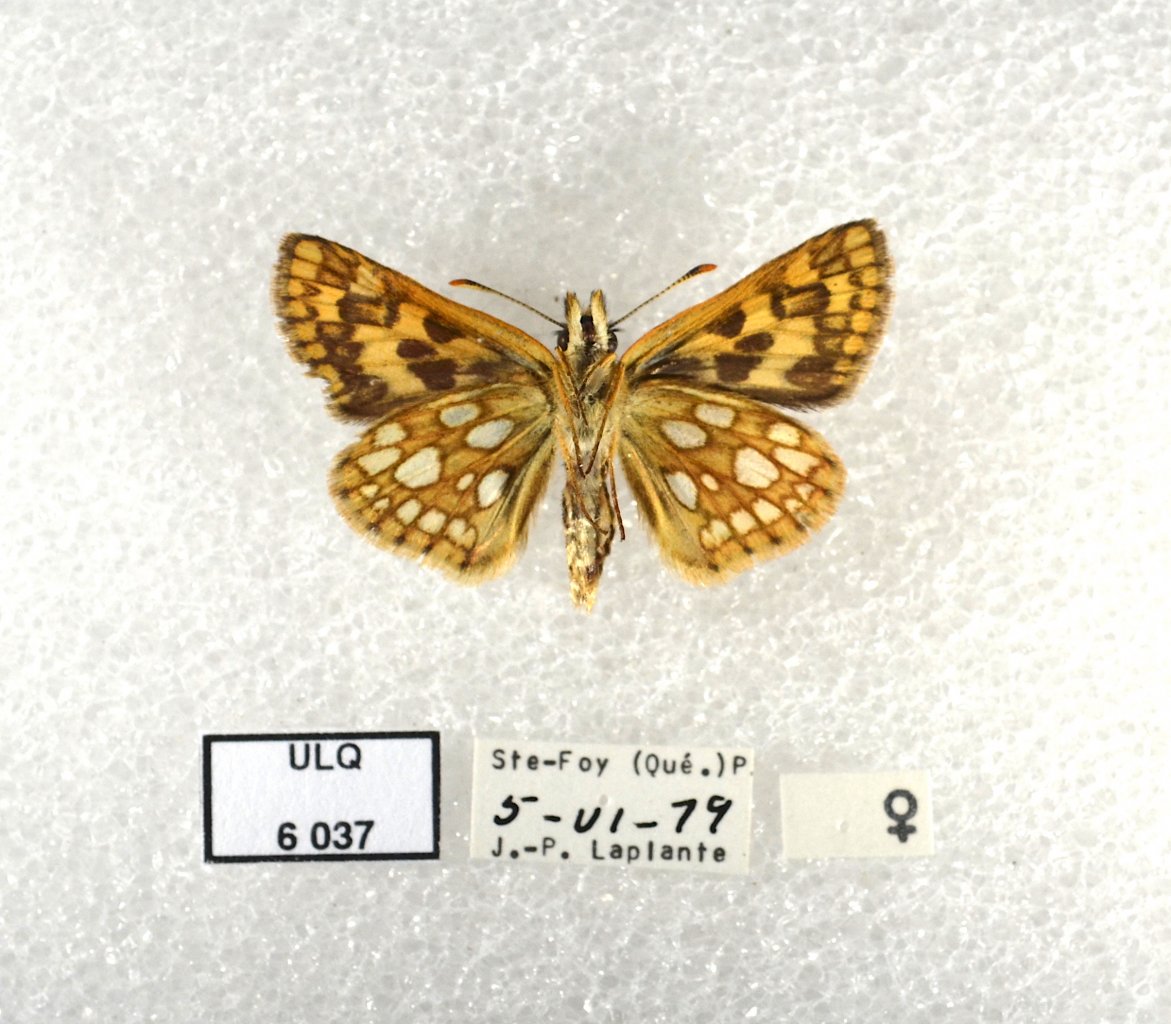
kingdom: Animalia
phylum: Arthropoda
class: Insecta
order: Lepidoptera
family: Hesperiidae
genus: Carterocephalus
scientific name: Carterocephalus palaemon
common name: Chequered Skipper
